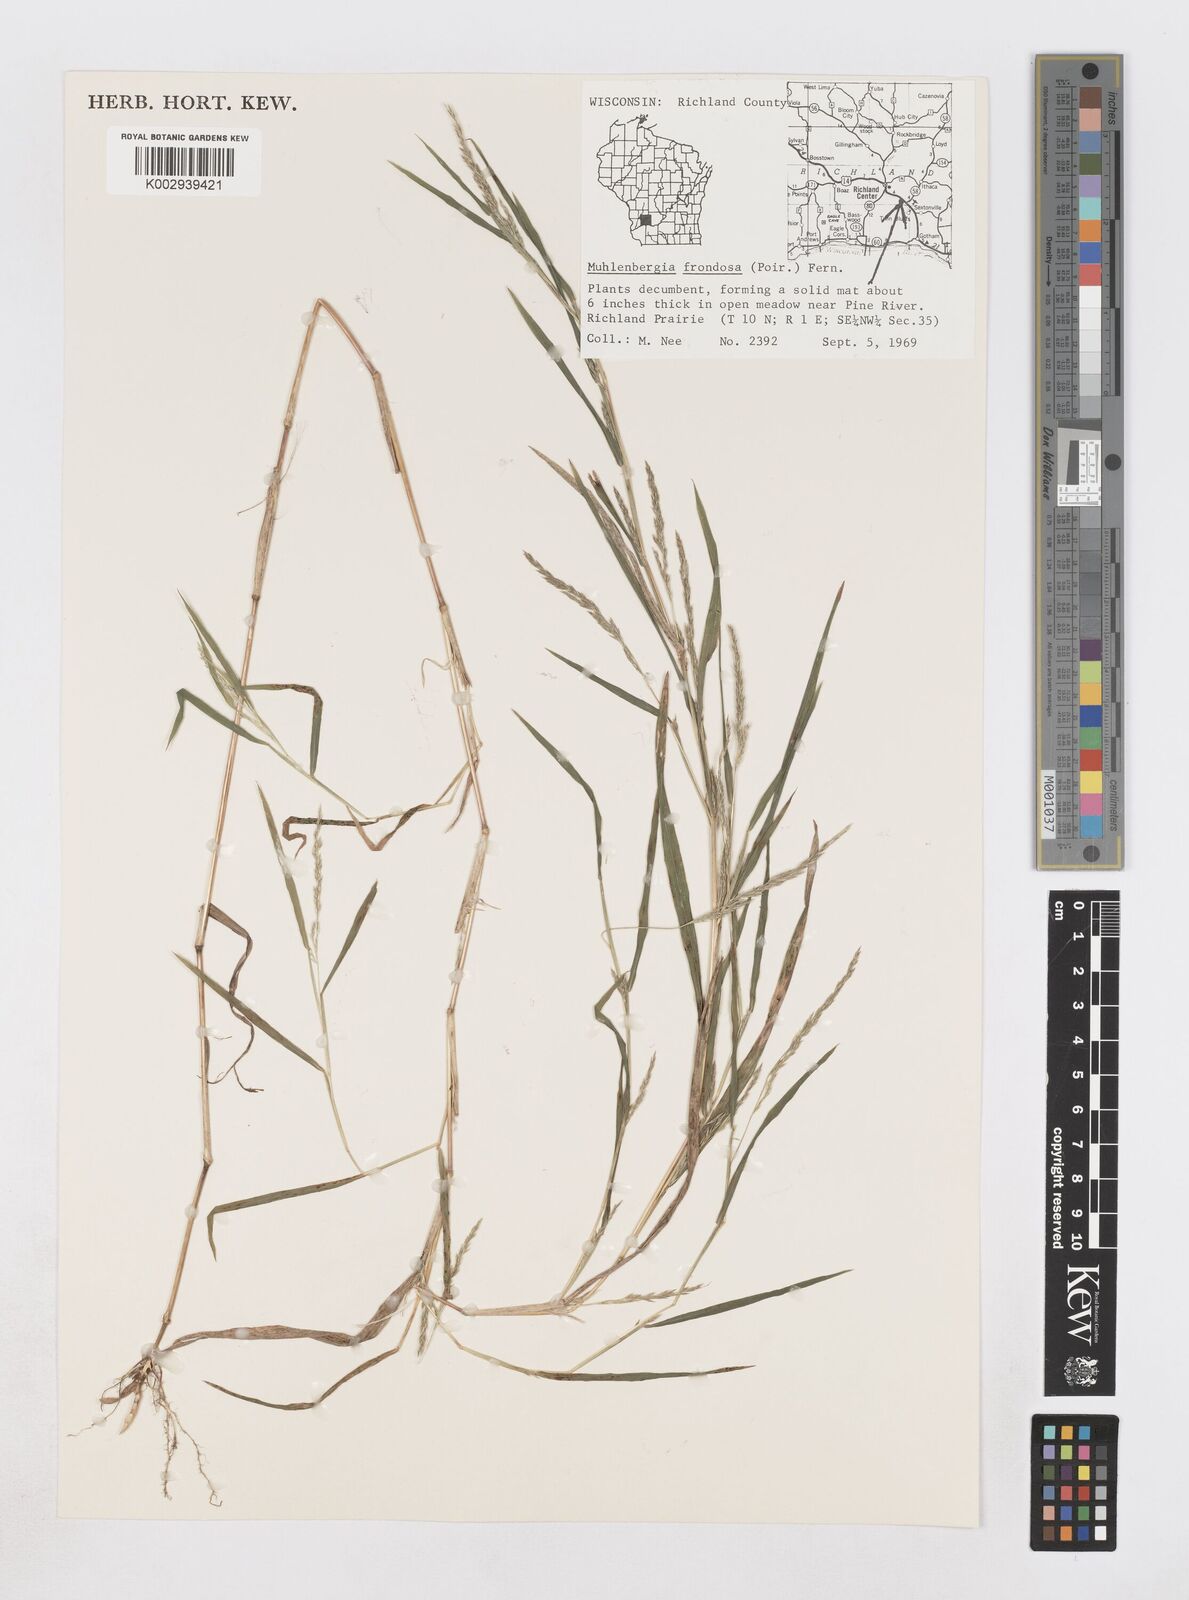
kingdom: Plantae
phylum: Tracheophyta
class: Liliopsida
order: Poales
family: Poaceae
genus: Muhlenbergia
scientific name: Muhlenbergia frondosa
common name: Common satingrass
